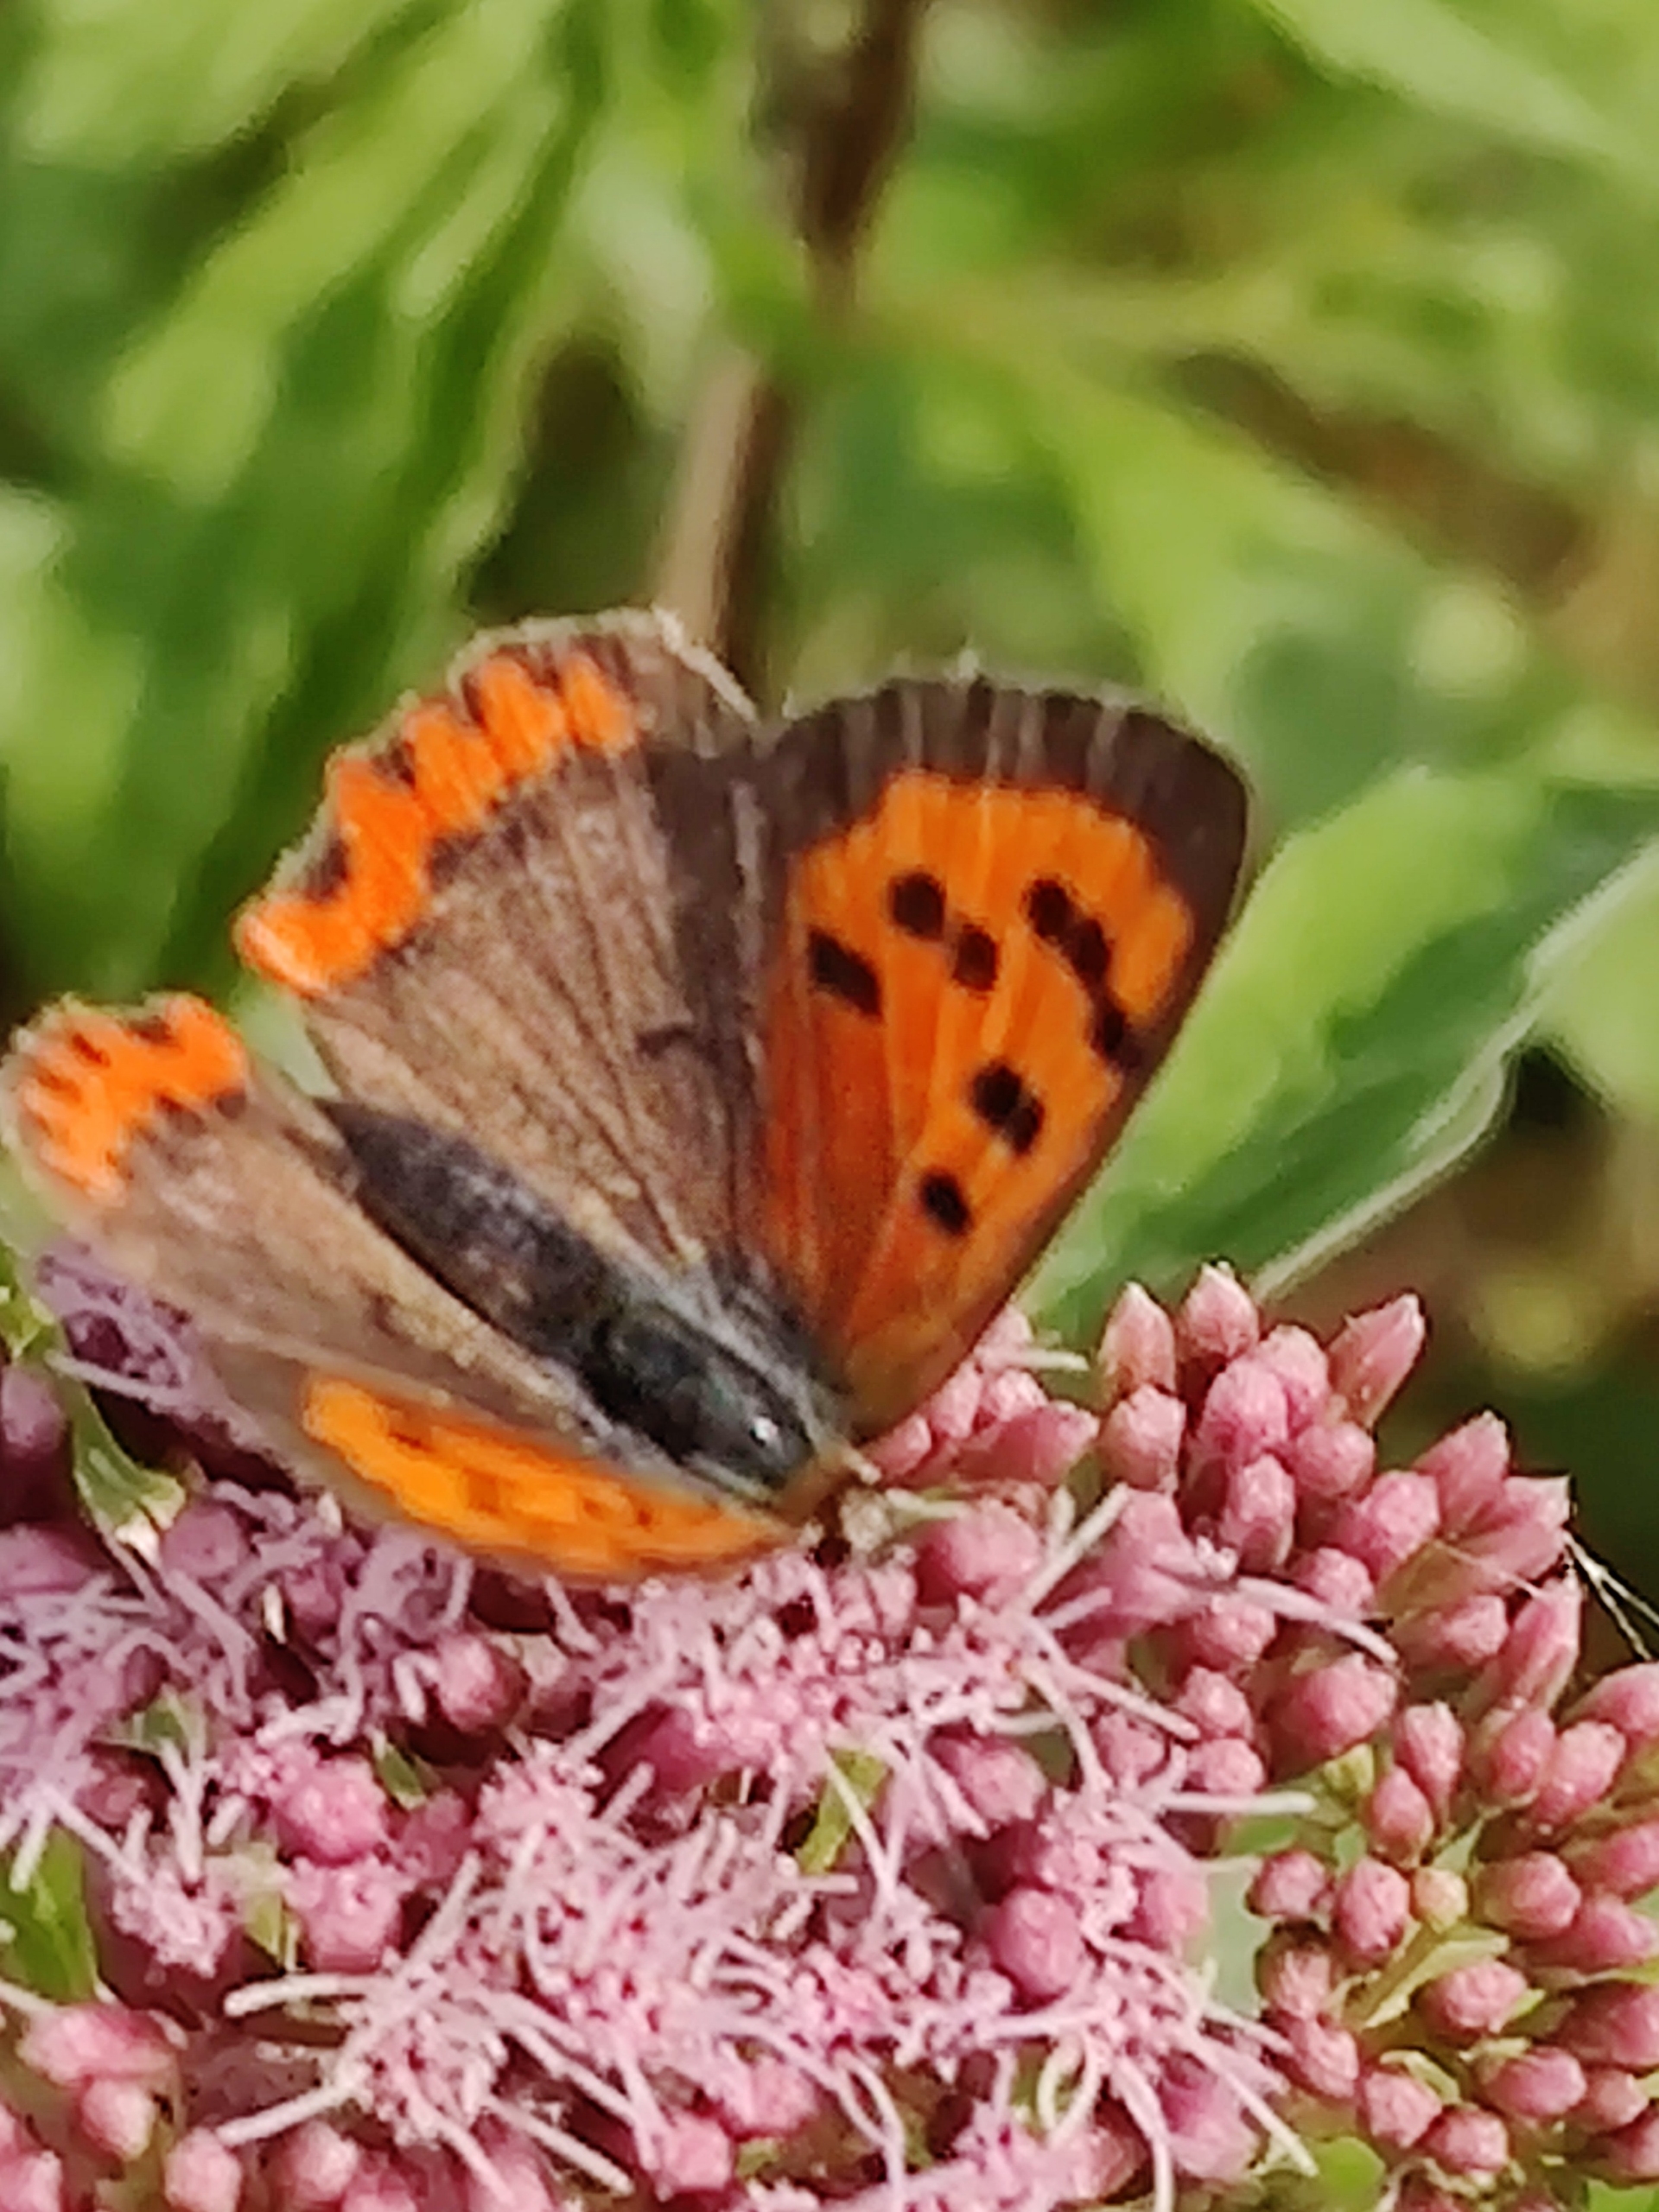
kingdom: Animalia
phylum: Arthropoda
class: Insecta
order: Lepidoptera
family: Lycaenidae
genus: Lycaena
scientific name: Lycaena phlaeas
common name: Lille ildfugl
